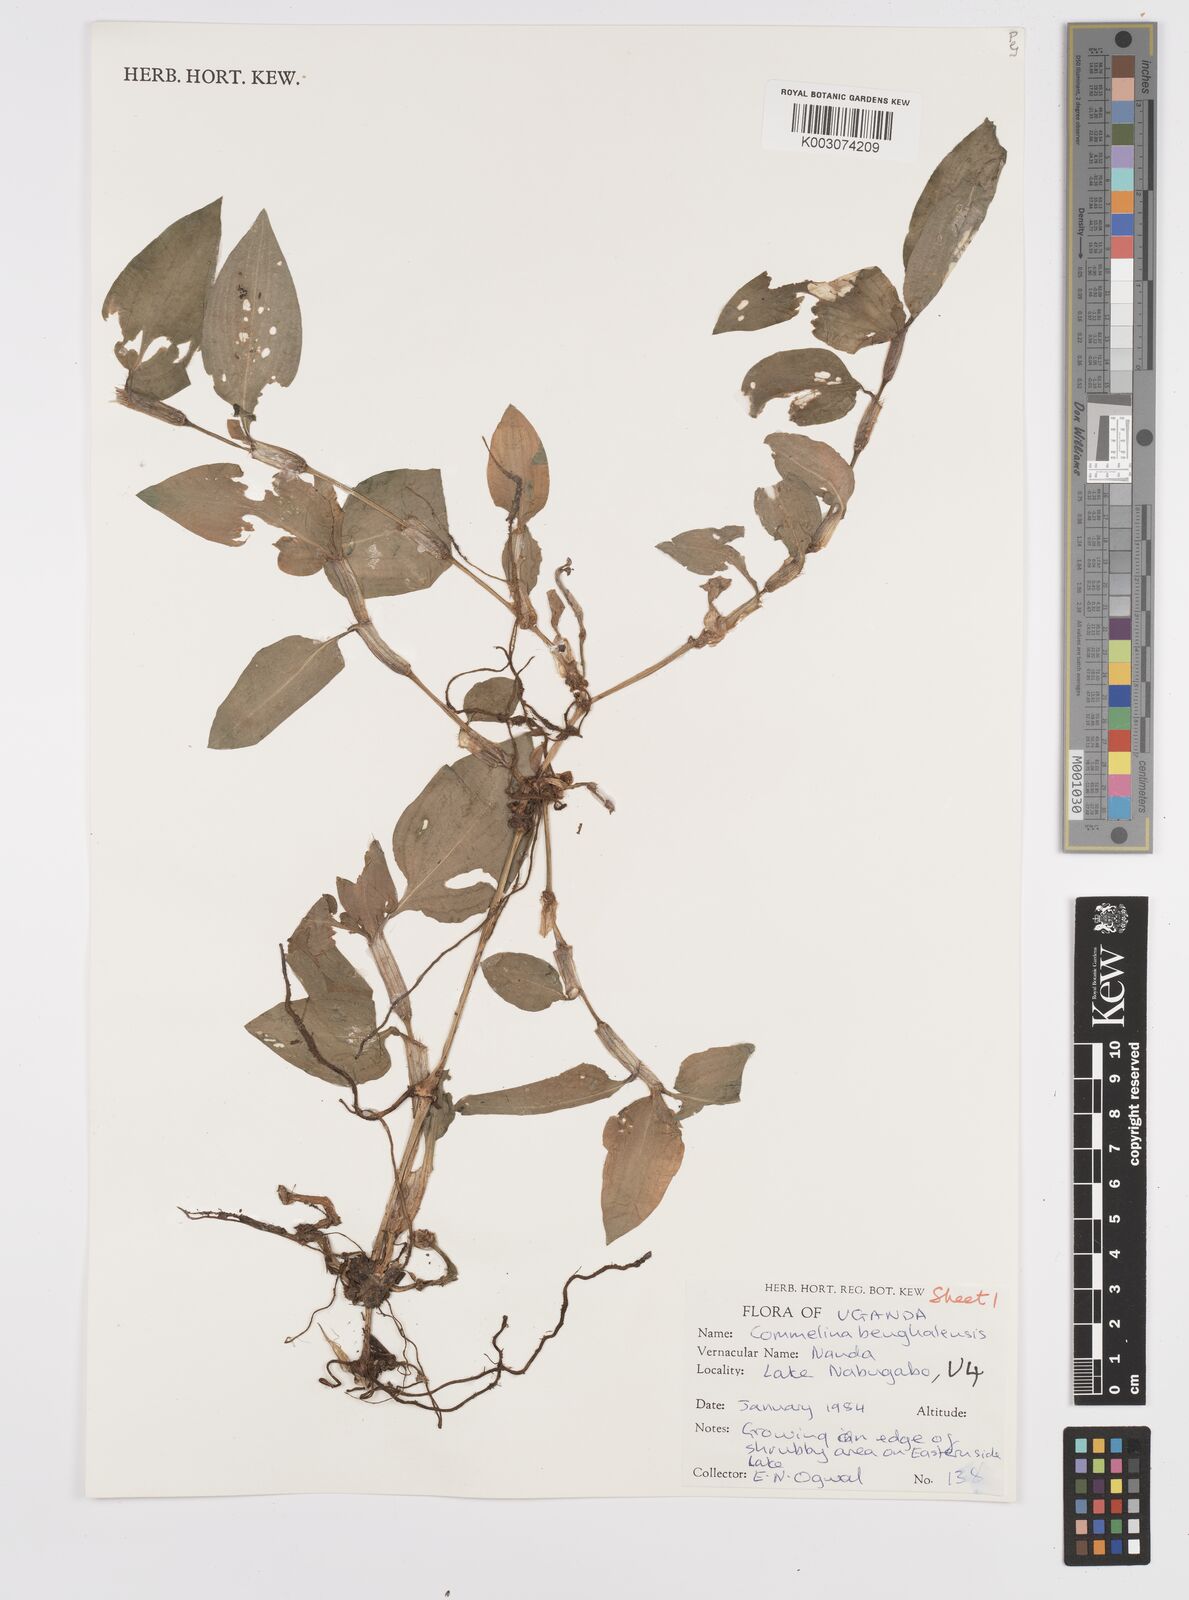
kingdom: Plantae
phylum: Tracheophyta
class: Liliopsida
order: Commelinales
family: Commelinaceae
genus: Commelina
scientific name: Commelina benghalensis
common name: Jio
